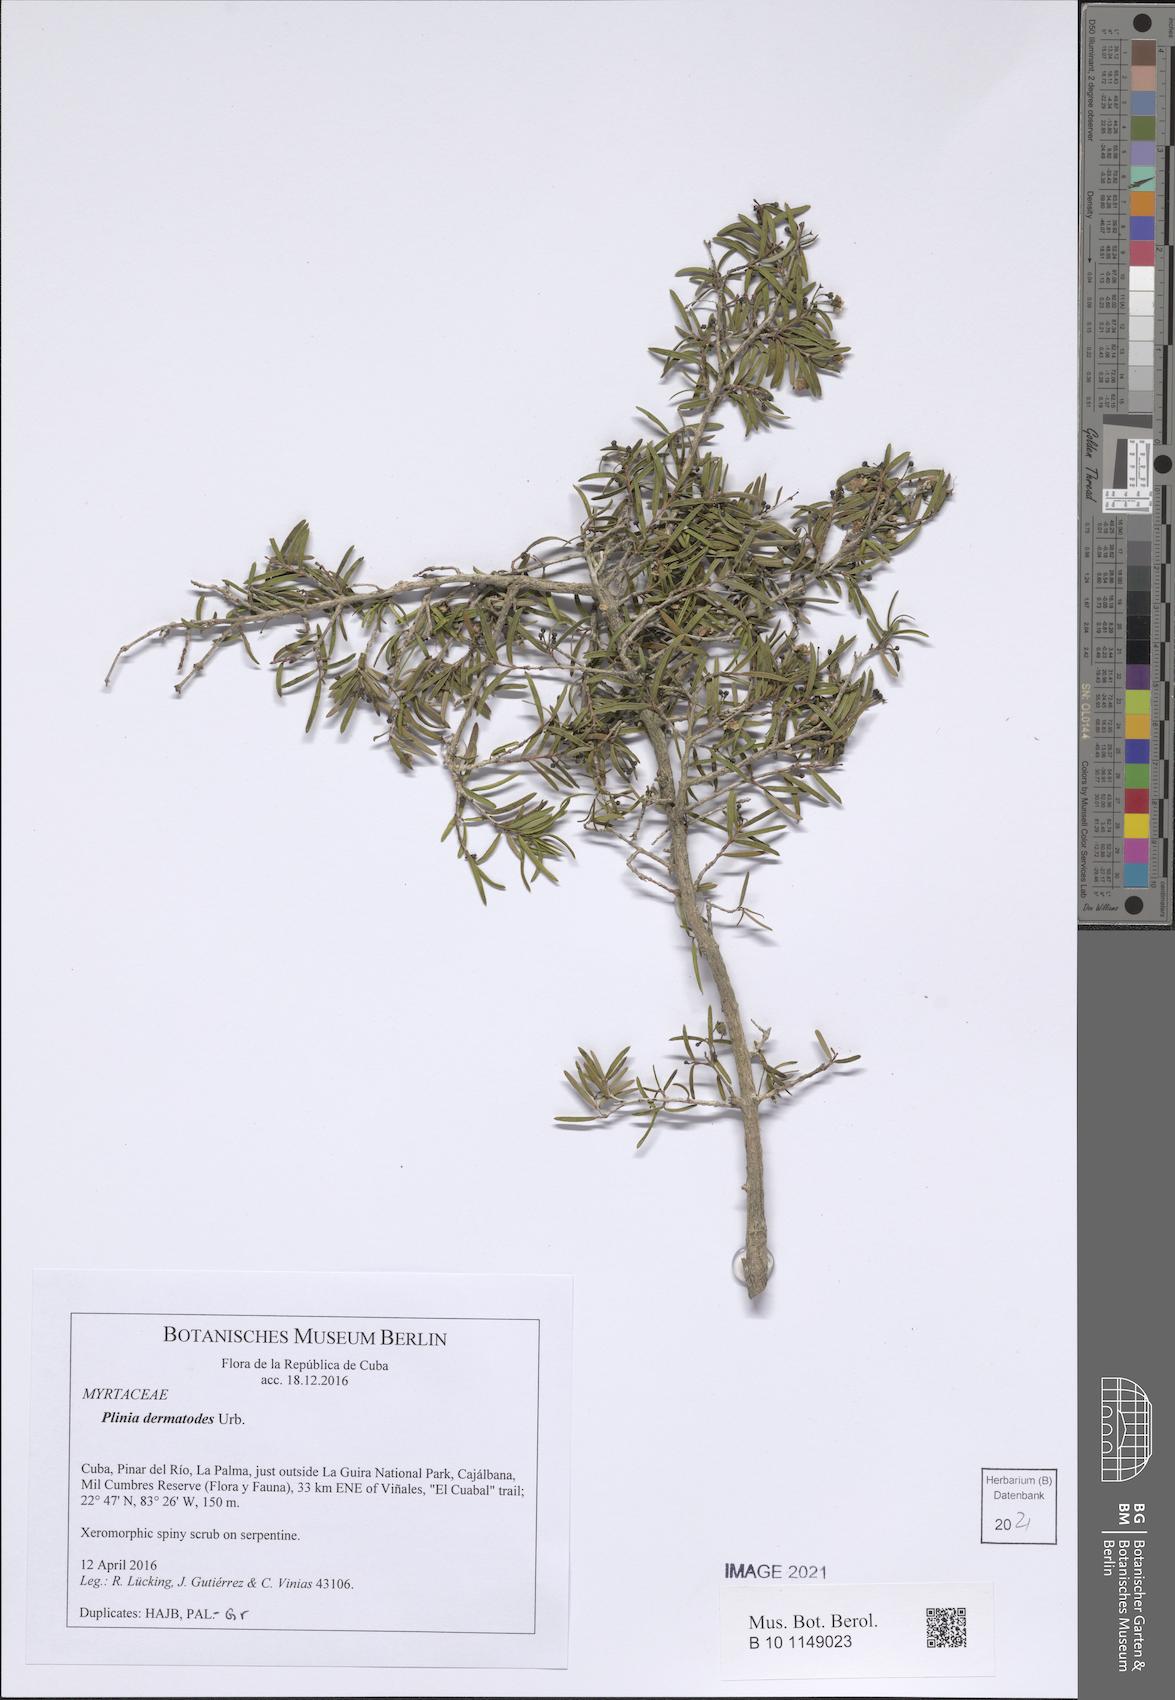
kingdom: Plantae
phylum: Tracheophyta
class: Magnoliopsida
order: Myrtales
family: Myrtaceae
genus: Eugenia
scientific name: Eugenia oligandra
